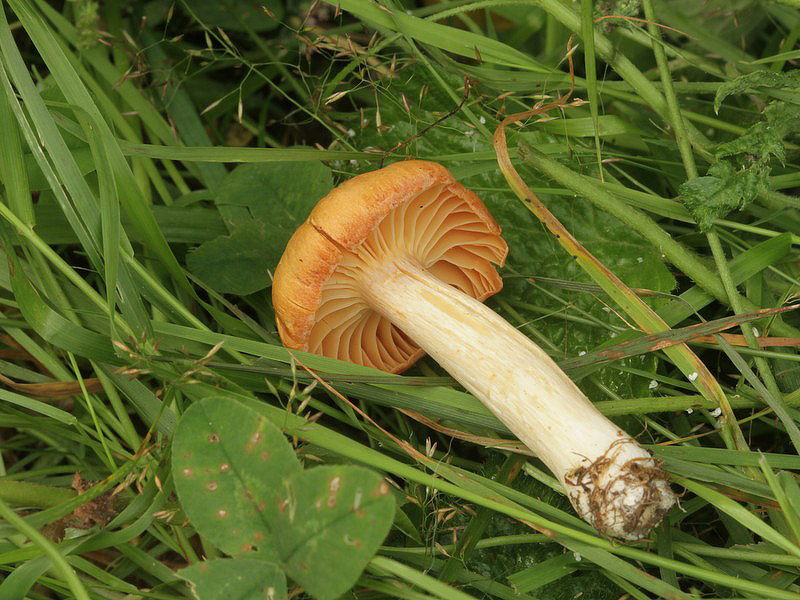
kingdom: Fungi
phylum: Basidiomycota
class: Agaricomycetes
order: Agaricales
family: Hygrophoraceae
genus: Cuphophyllus
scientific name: Cuphophyllus pratensis
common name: eng-vokshat
